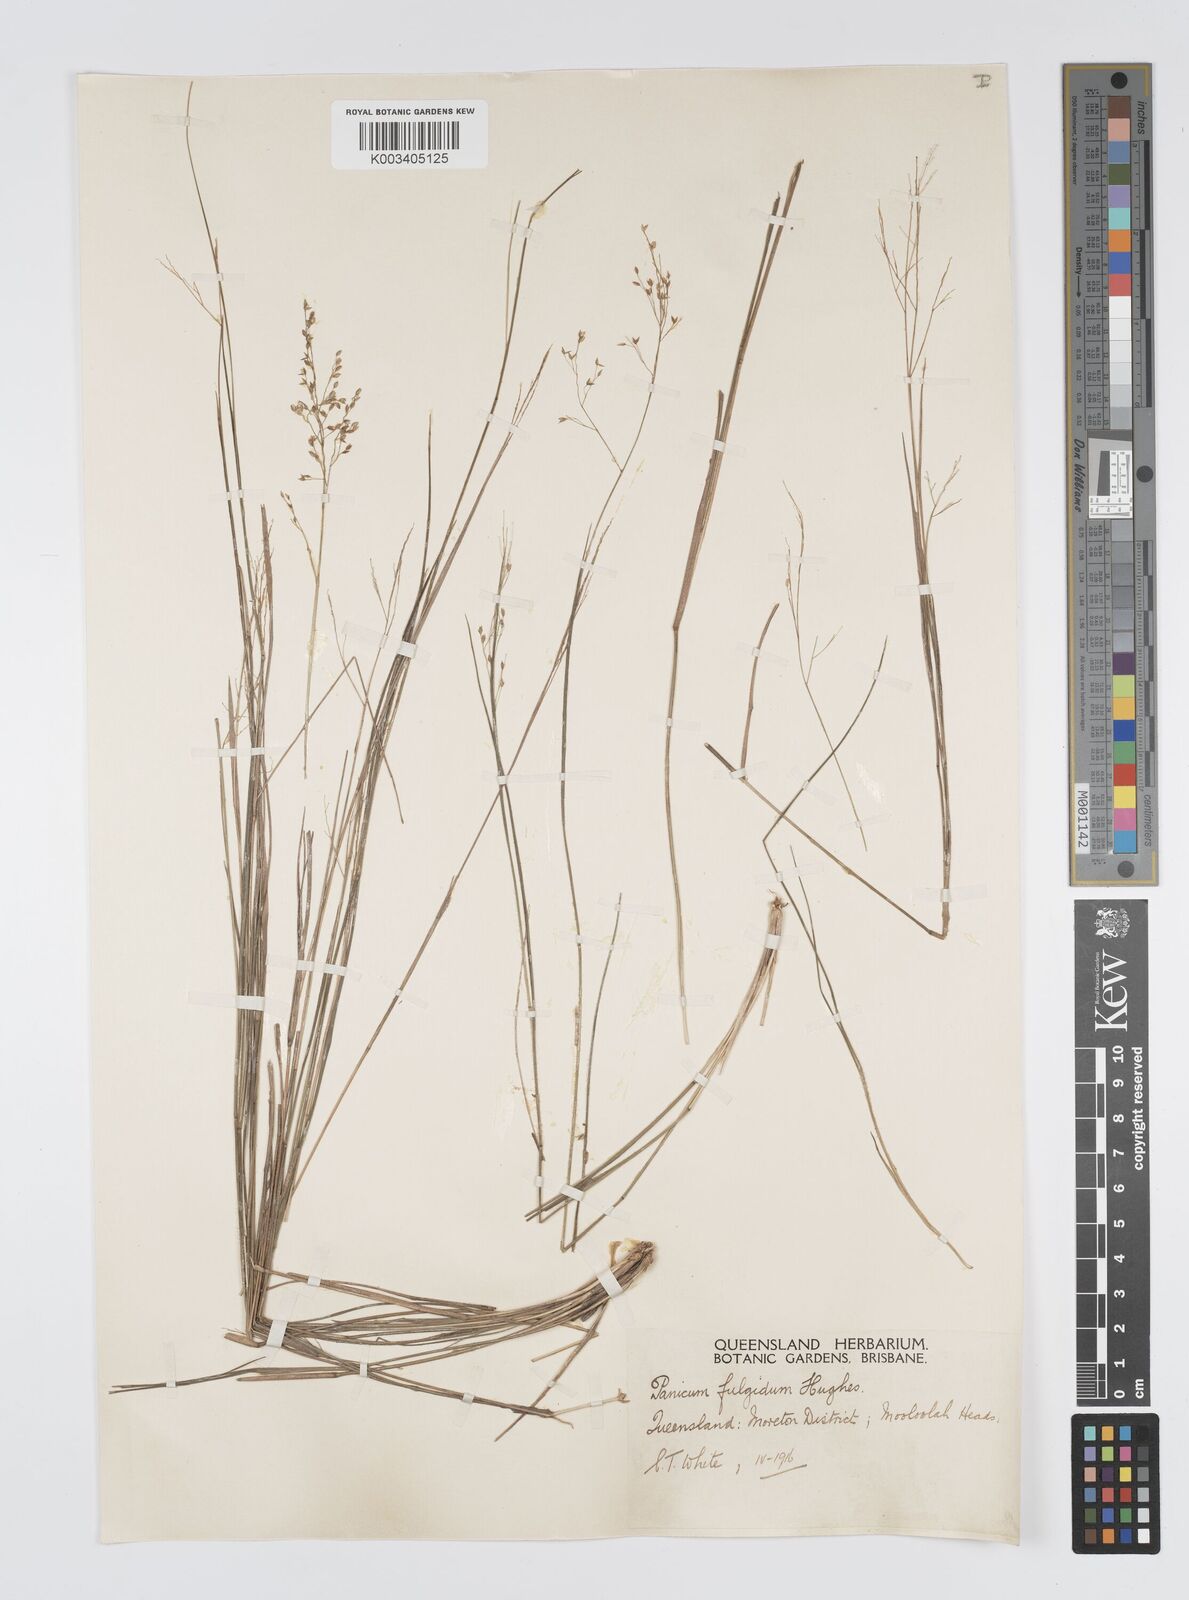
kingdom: Plantae
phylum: Tracheophyta
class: Liliopsida
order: Poales
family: Poaceae
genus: Panicum
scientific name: Panicum simile
